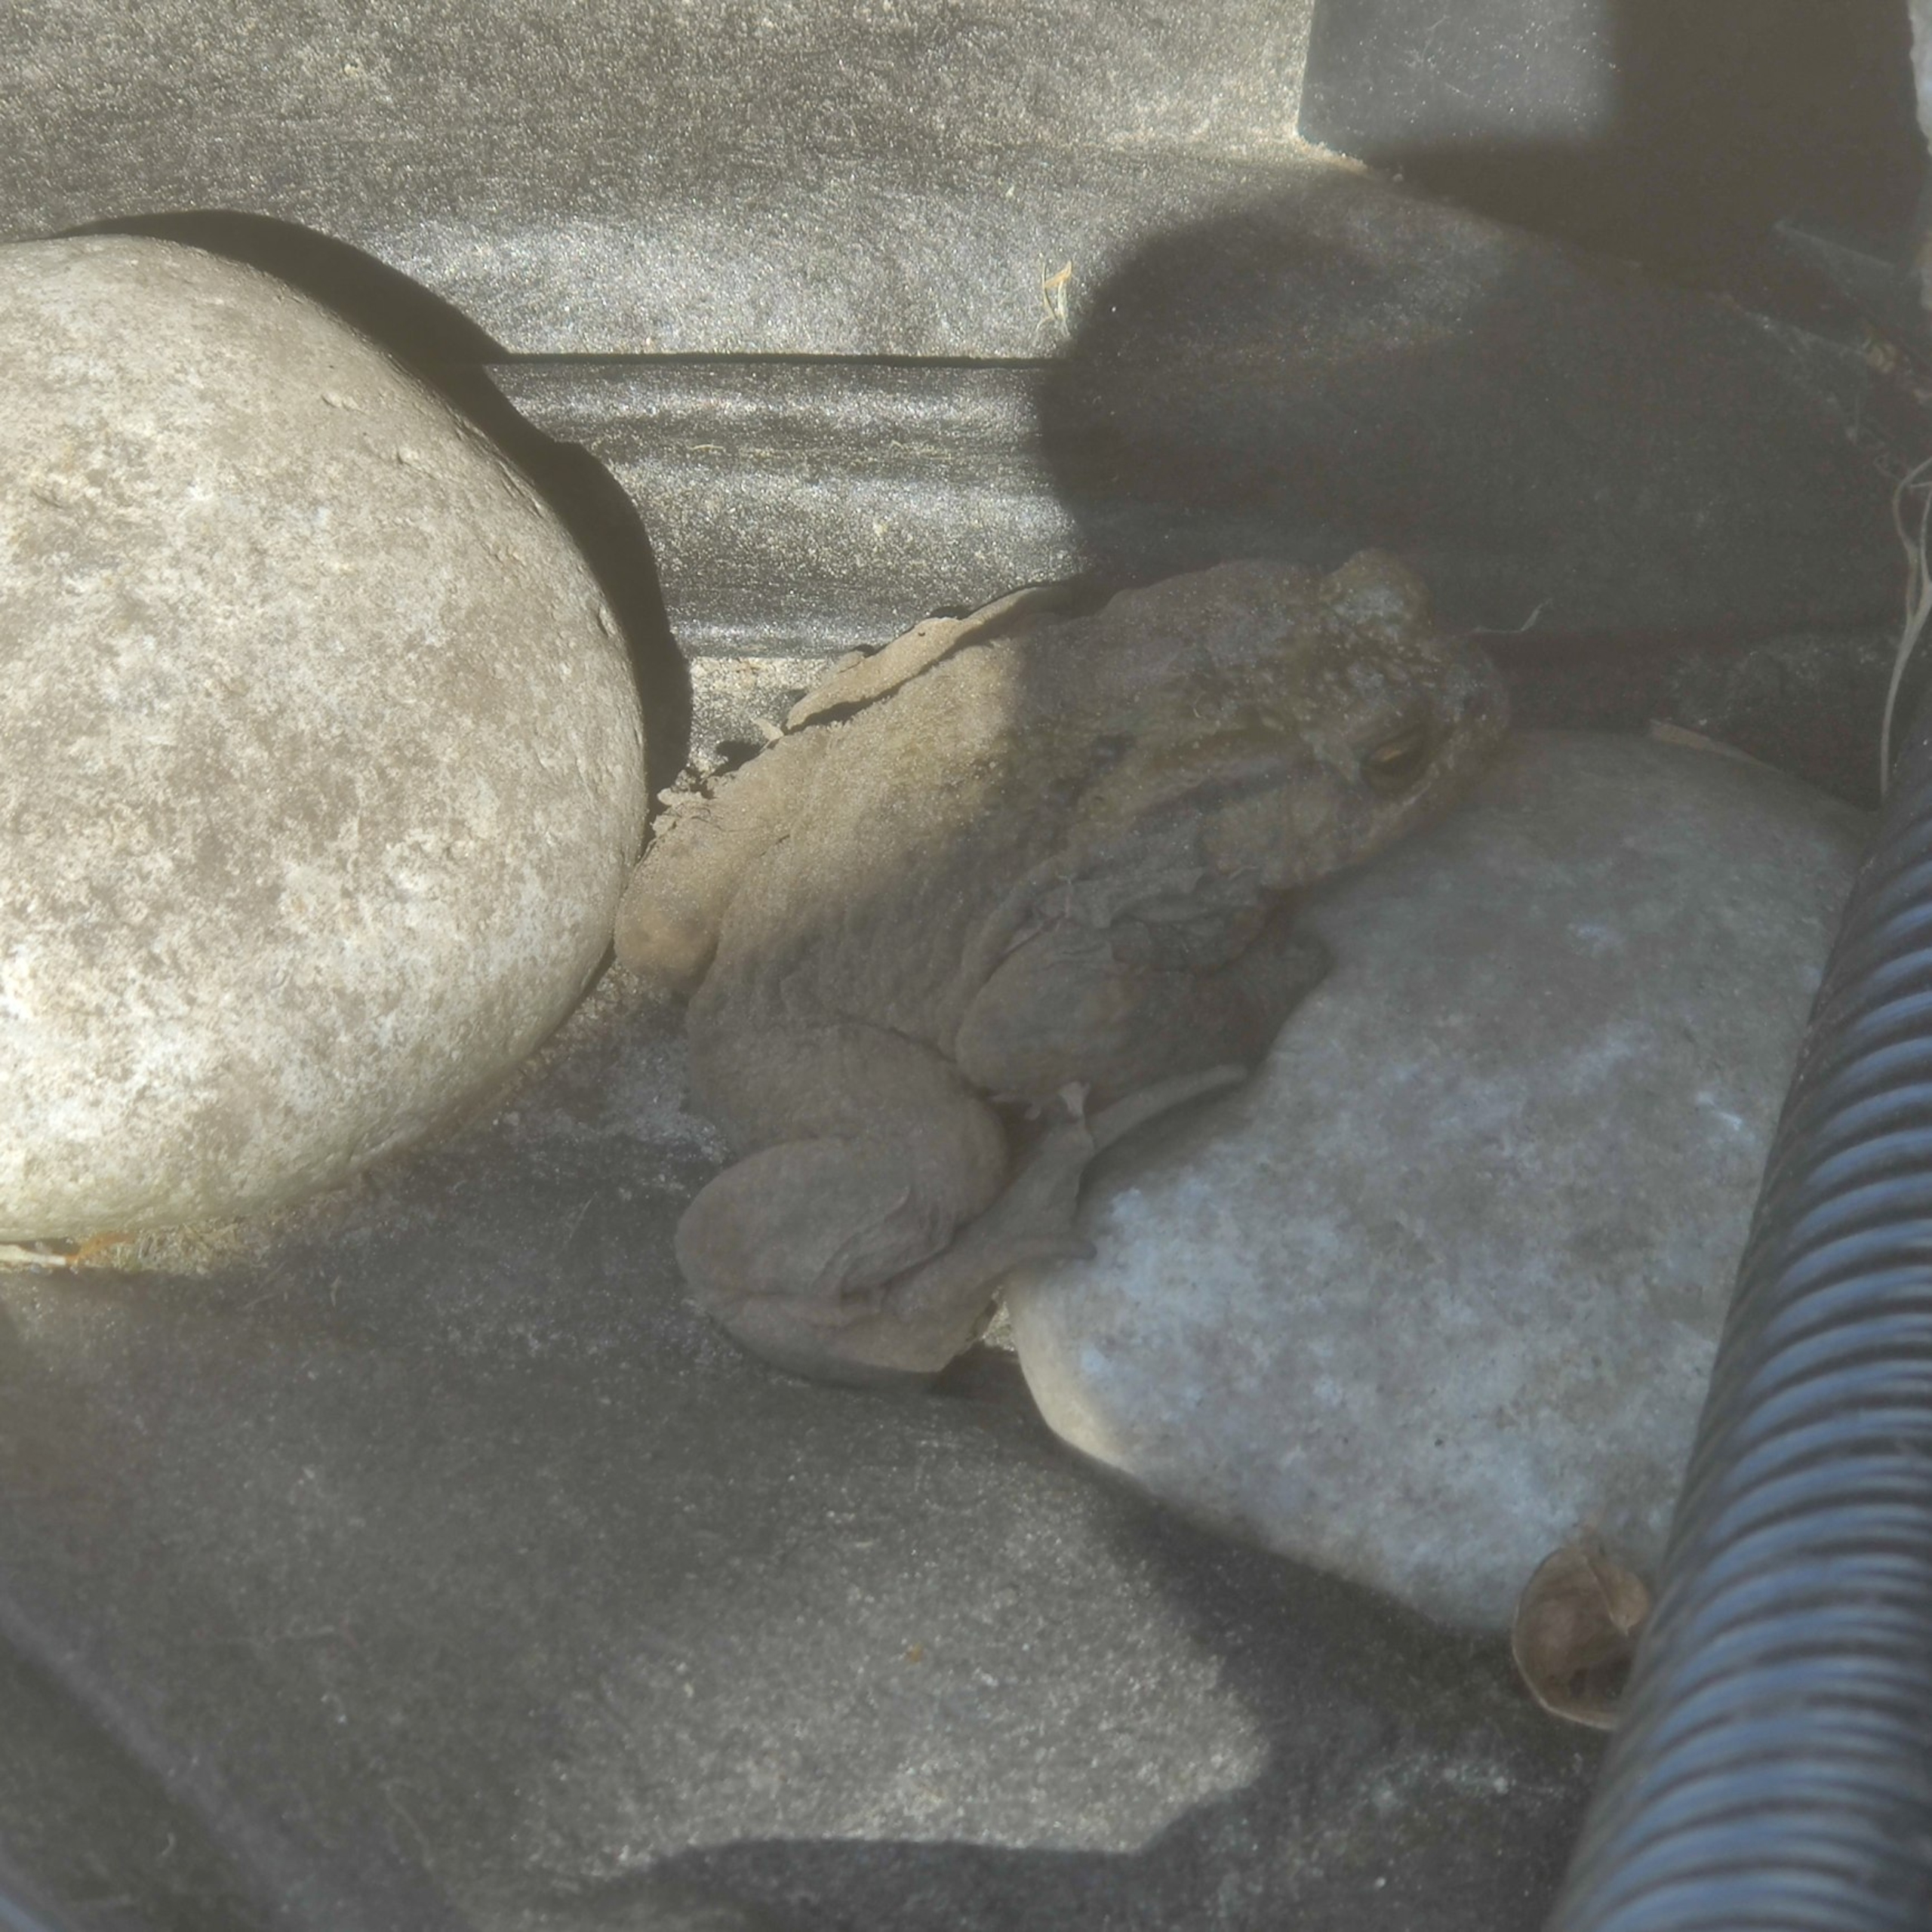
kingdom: Animalia
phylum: Chordata
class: Amphibia
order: Anura
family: Bufonidae
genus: Bufo
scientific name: Bufo bufo
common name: Skrubtudse
